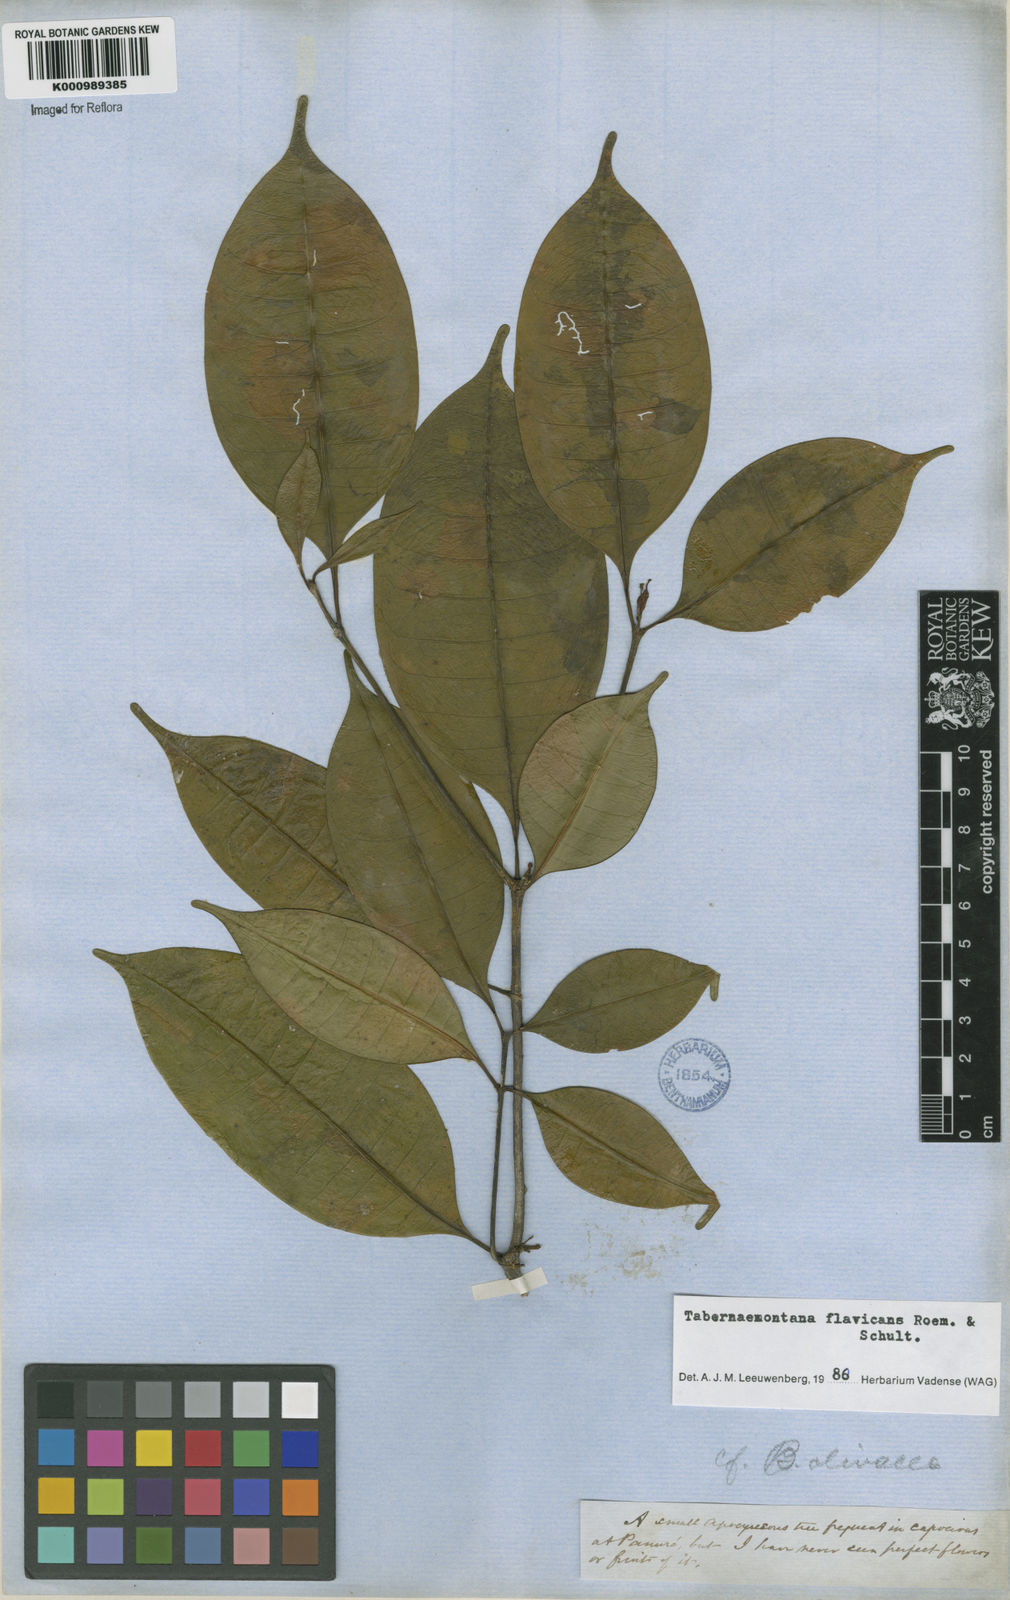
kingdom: Plantae
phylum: Tracheophyta
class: Magnoliopsida
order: Gentianales
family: Apocynaceae
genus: Tabernaemontana
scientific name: Tabernaemontana flavicans
